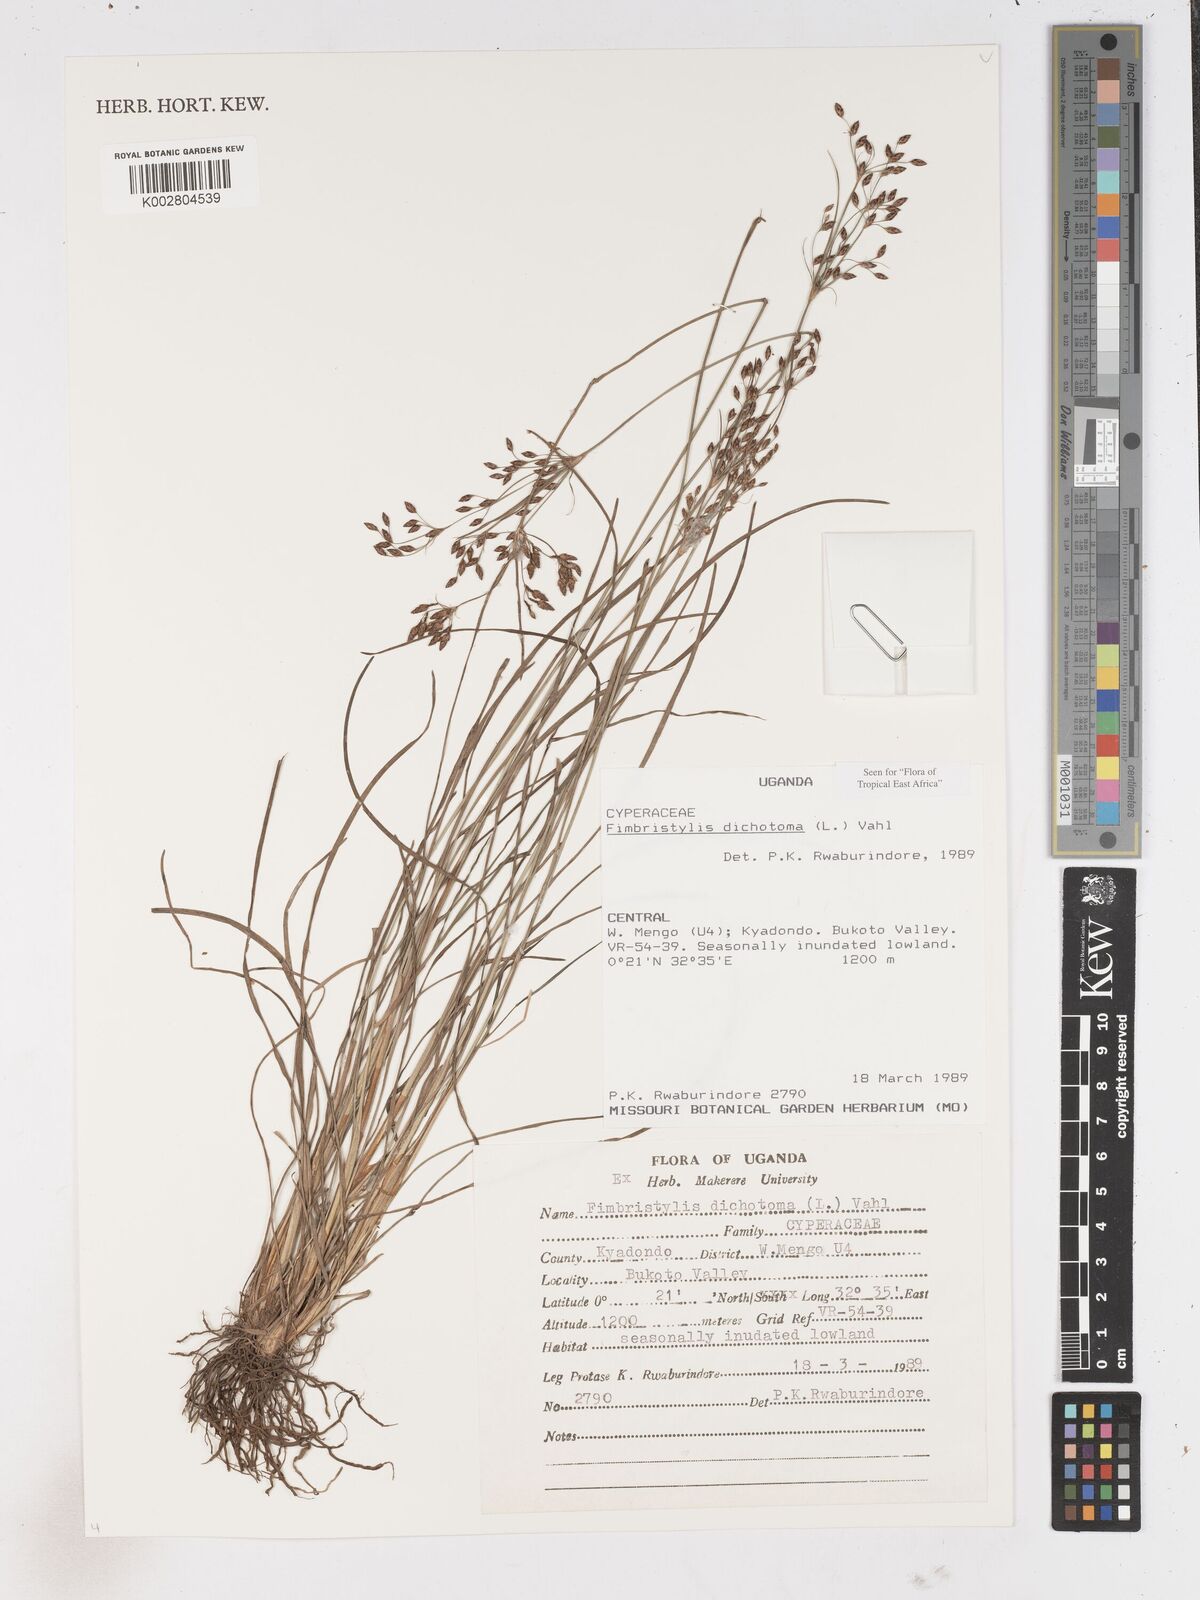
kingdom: Plantae
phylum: Tracheophyta
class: Liliopsida
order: Poales
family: Cyperaceae
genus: Fimbristylis
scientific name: Fimbristylis dichotoma
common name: Forked fimbry
